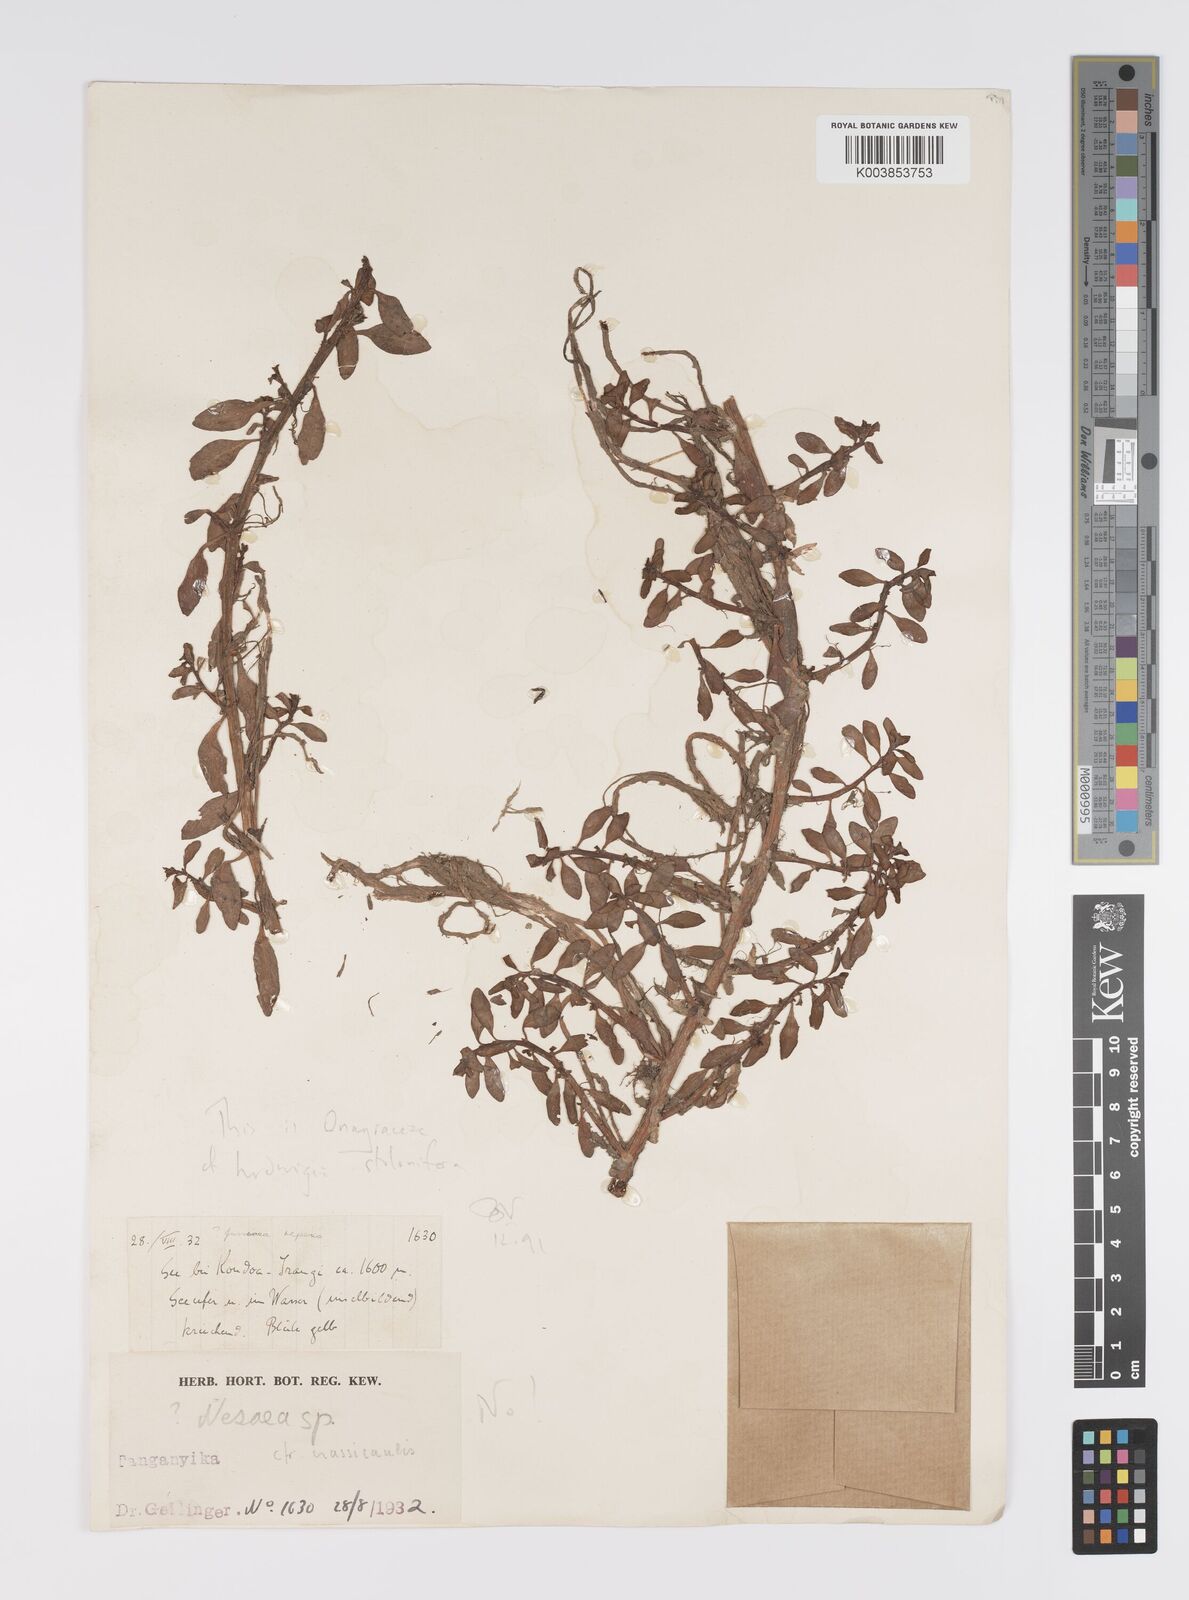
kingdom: Plantae
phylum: Tracheophyta
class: Magnoliopsida
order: Myrtales
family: Onagraceae
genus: Ludwigia
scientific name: Ludwigia adscendens
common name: Creeping water primrose
